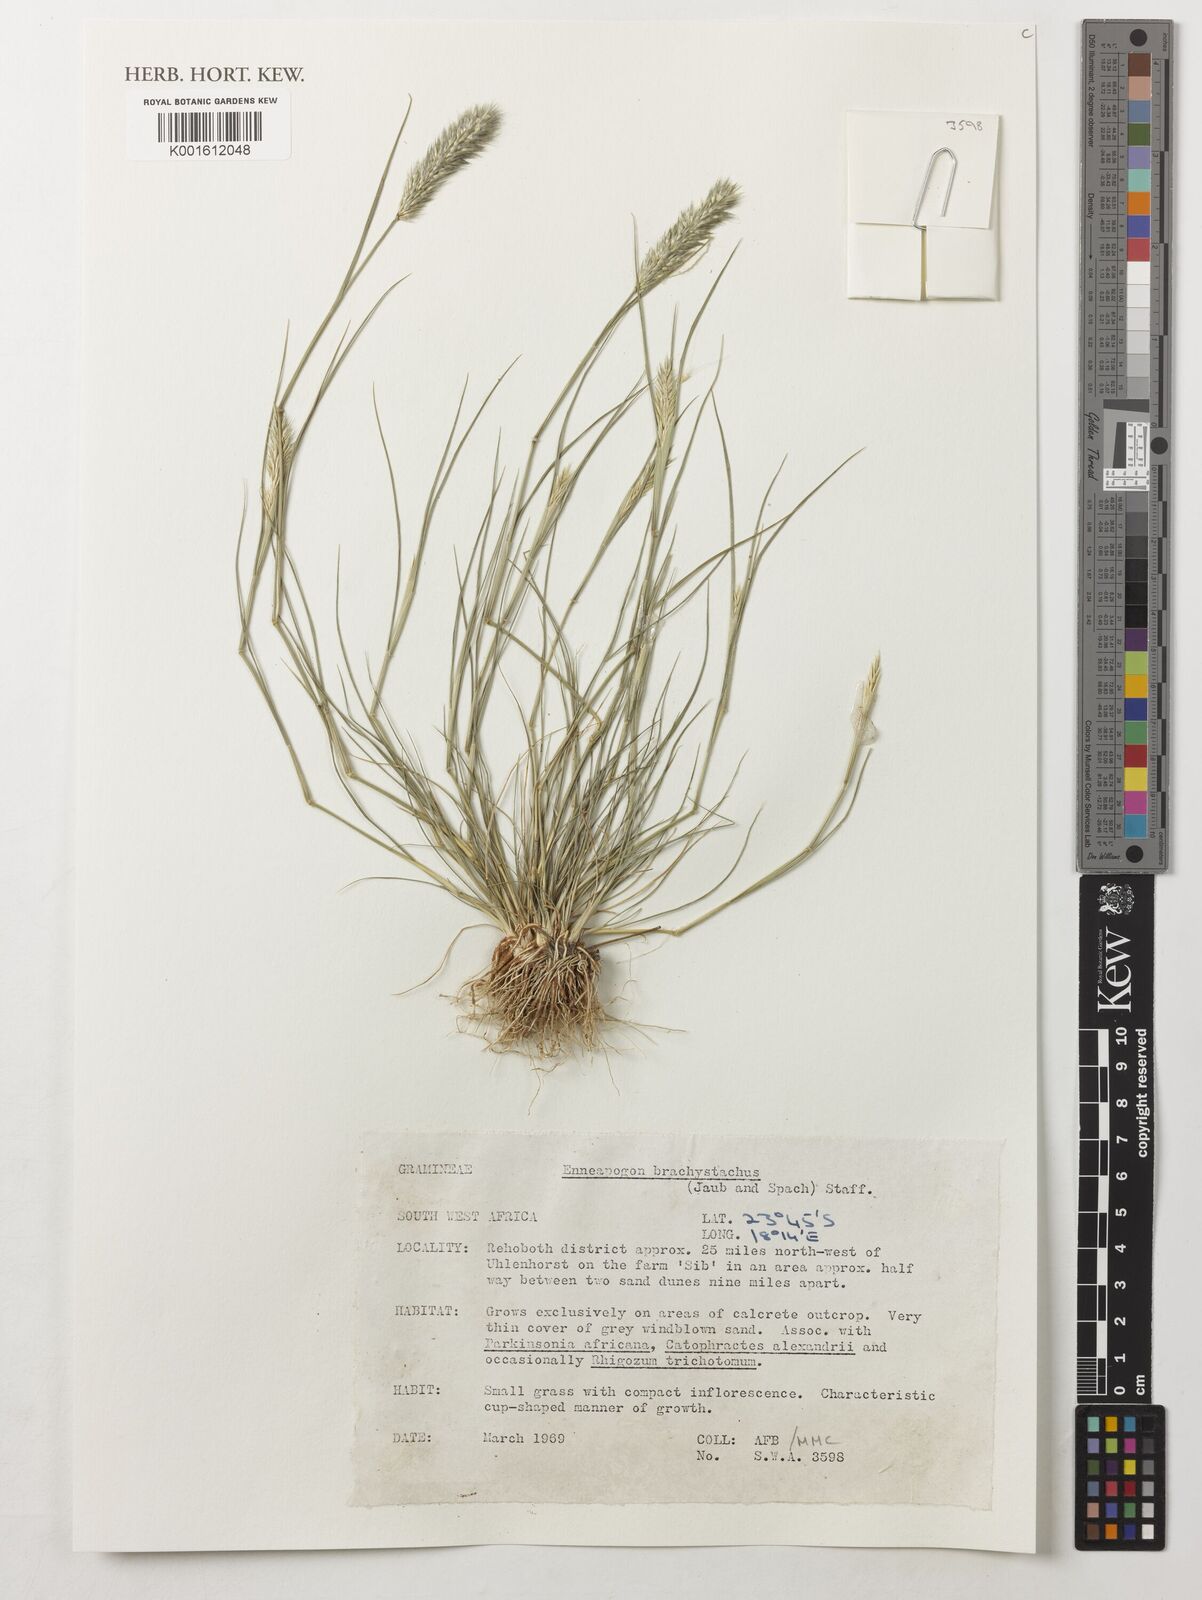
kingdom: Plantae
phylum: Tracheophyta
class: Liliopsida
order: Poales
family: Poaceae
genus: Enneapogon
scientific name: Enneapogon desvauxii
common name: Feather pappus grass
